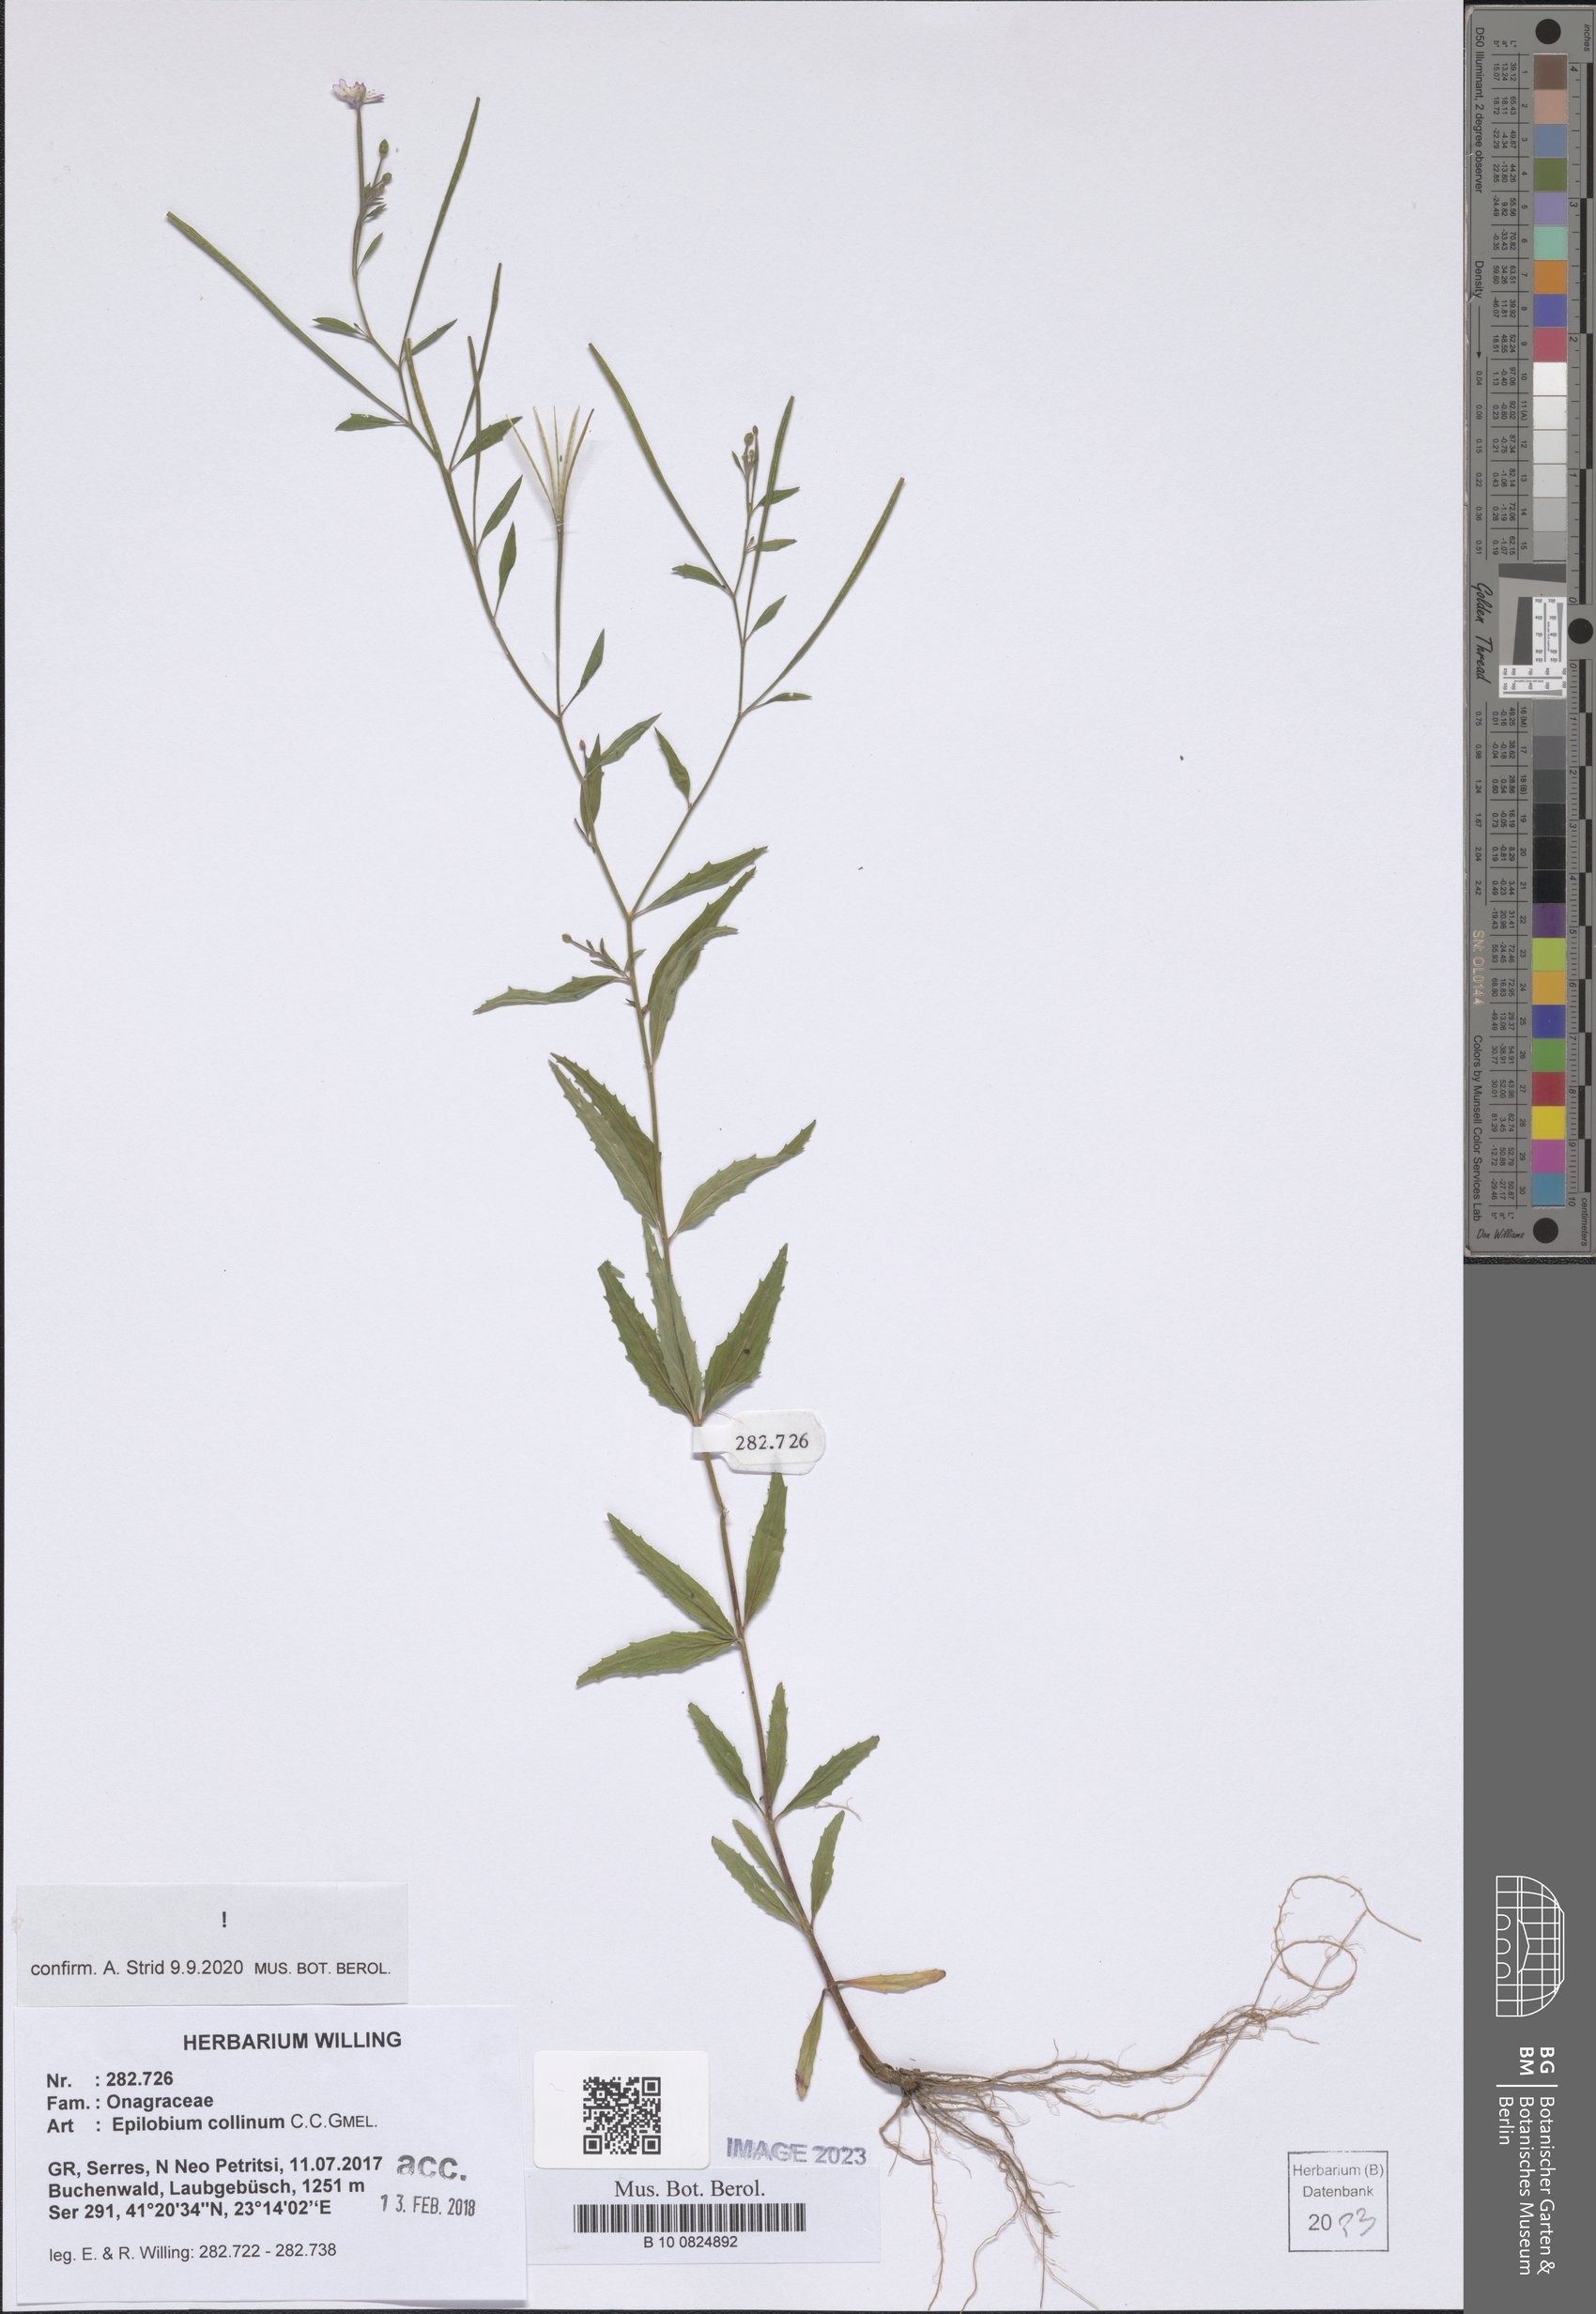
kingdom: Plantae
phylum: Tracheophyta
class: Magnoliopsida
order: Myrtales
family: Onagraceae
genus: Epilobium
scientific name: Epilobium collinum
